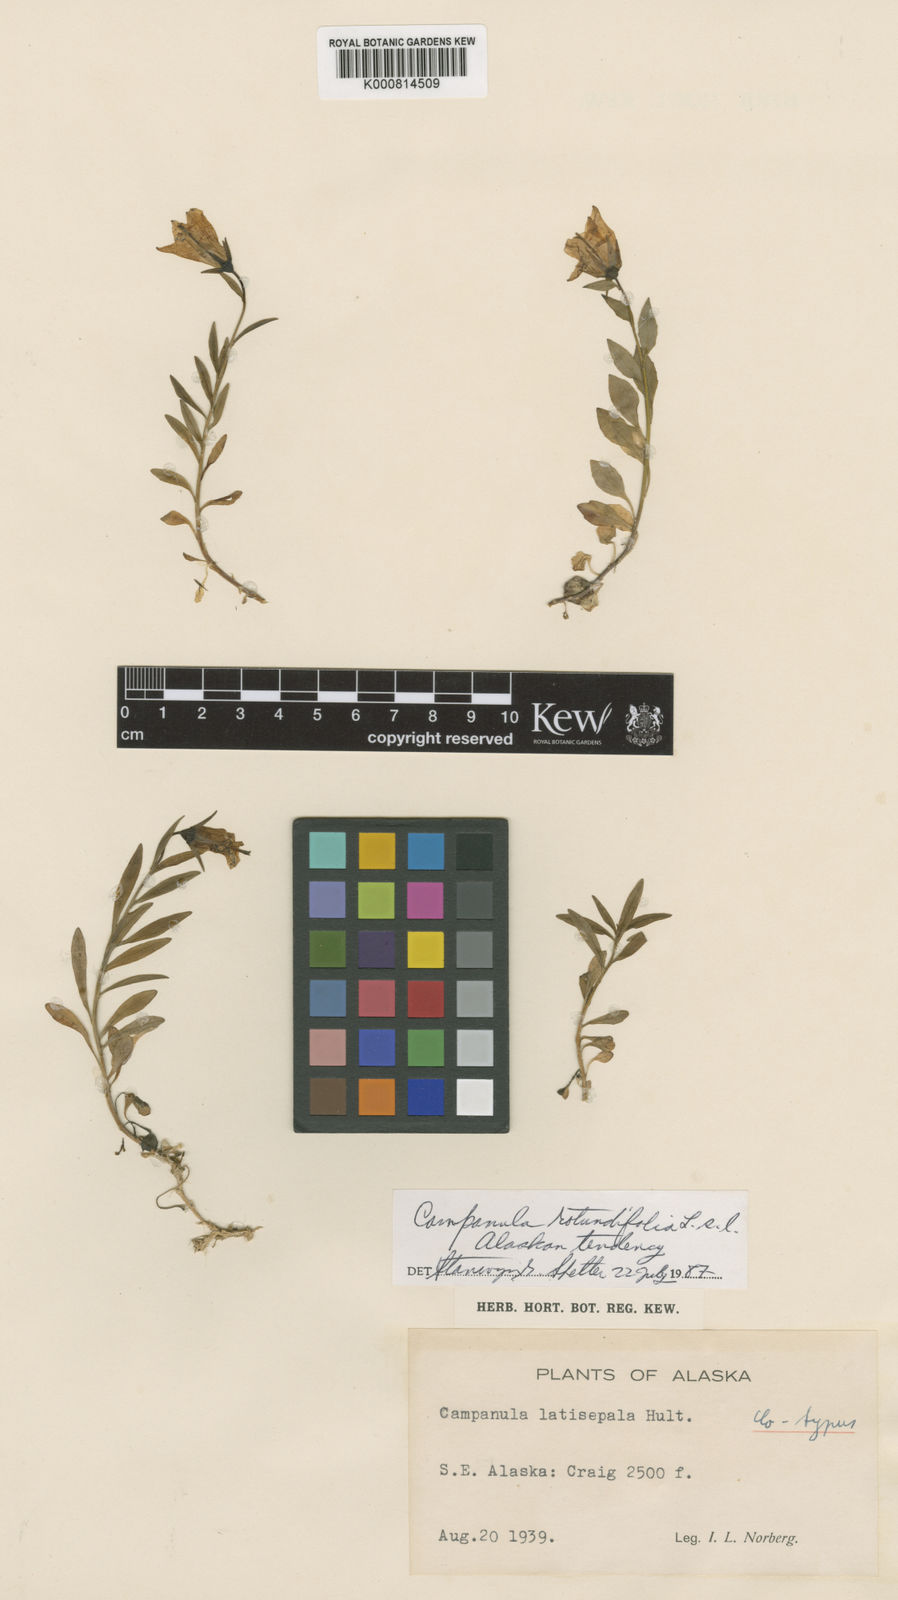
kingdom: Plantae
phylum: Tracheophyta
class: Magnoliopsida
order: Asterales
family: Campanulaceae
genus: Campanula
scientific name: Campanula
